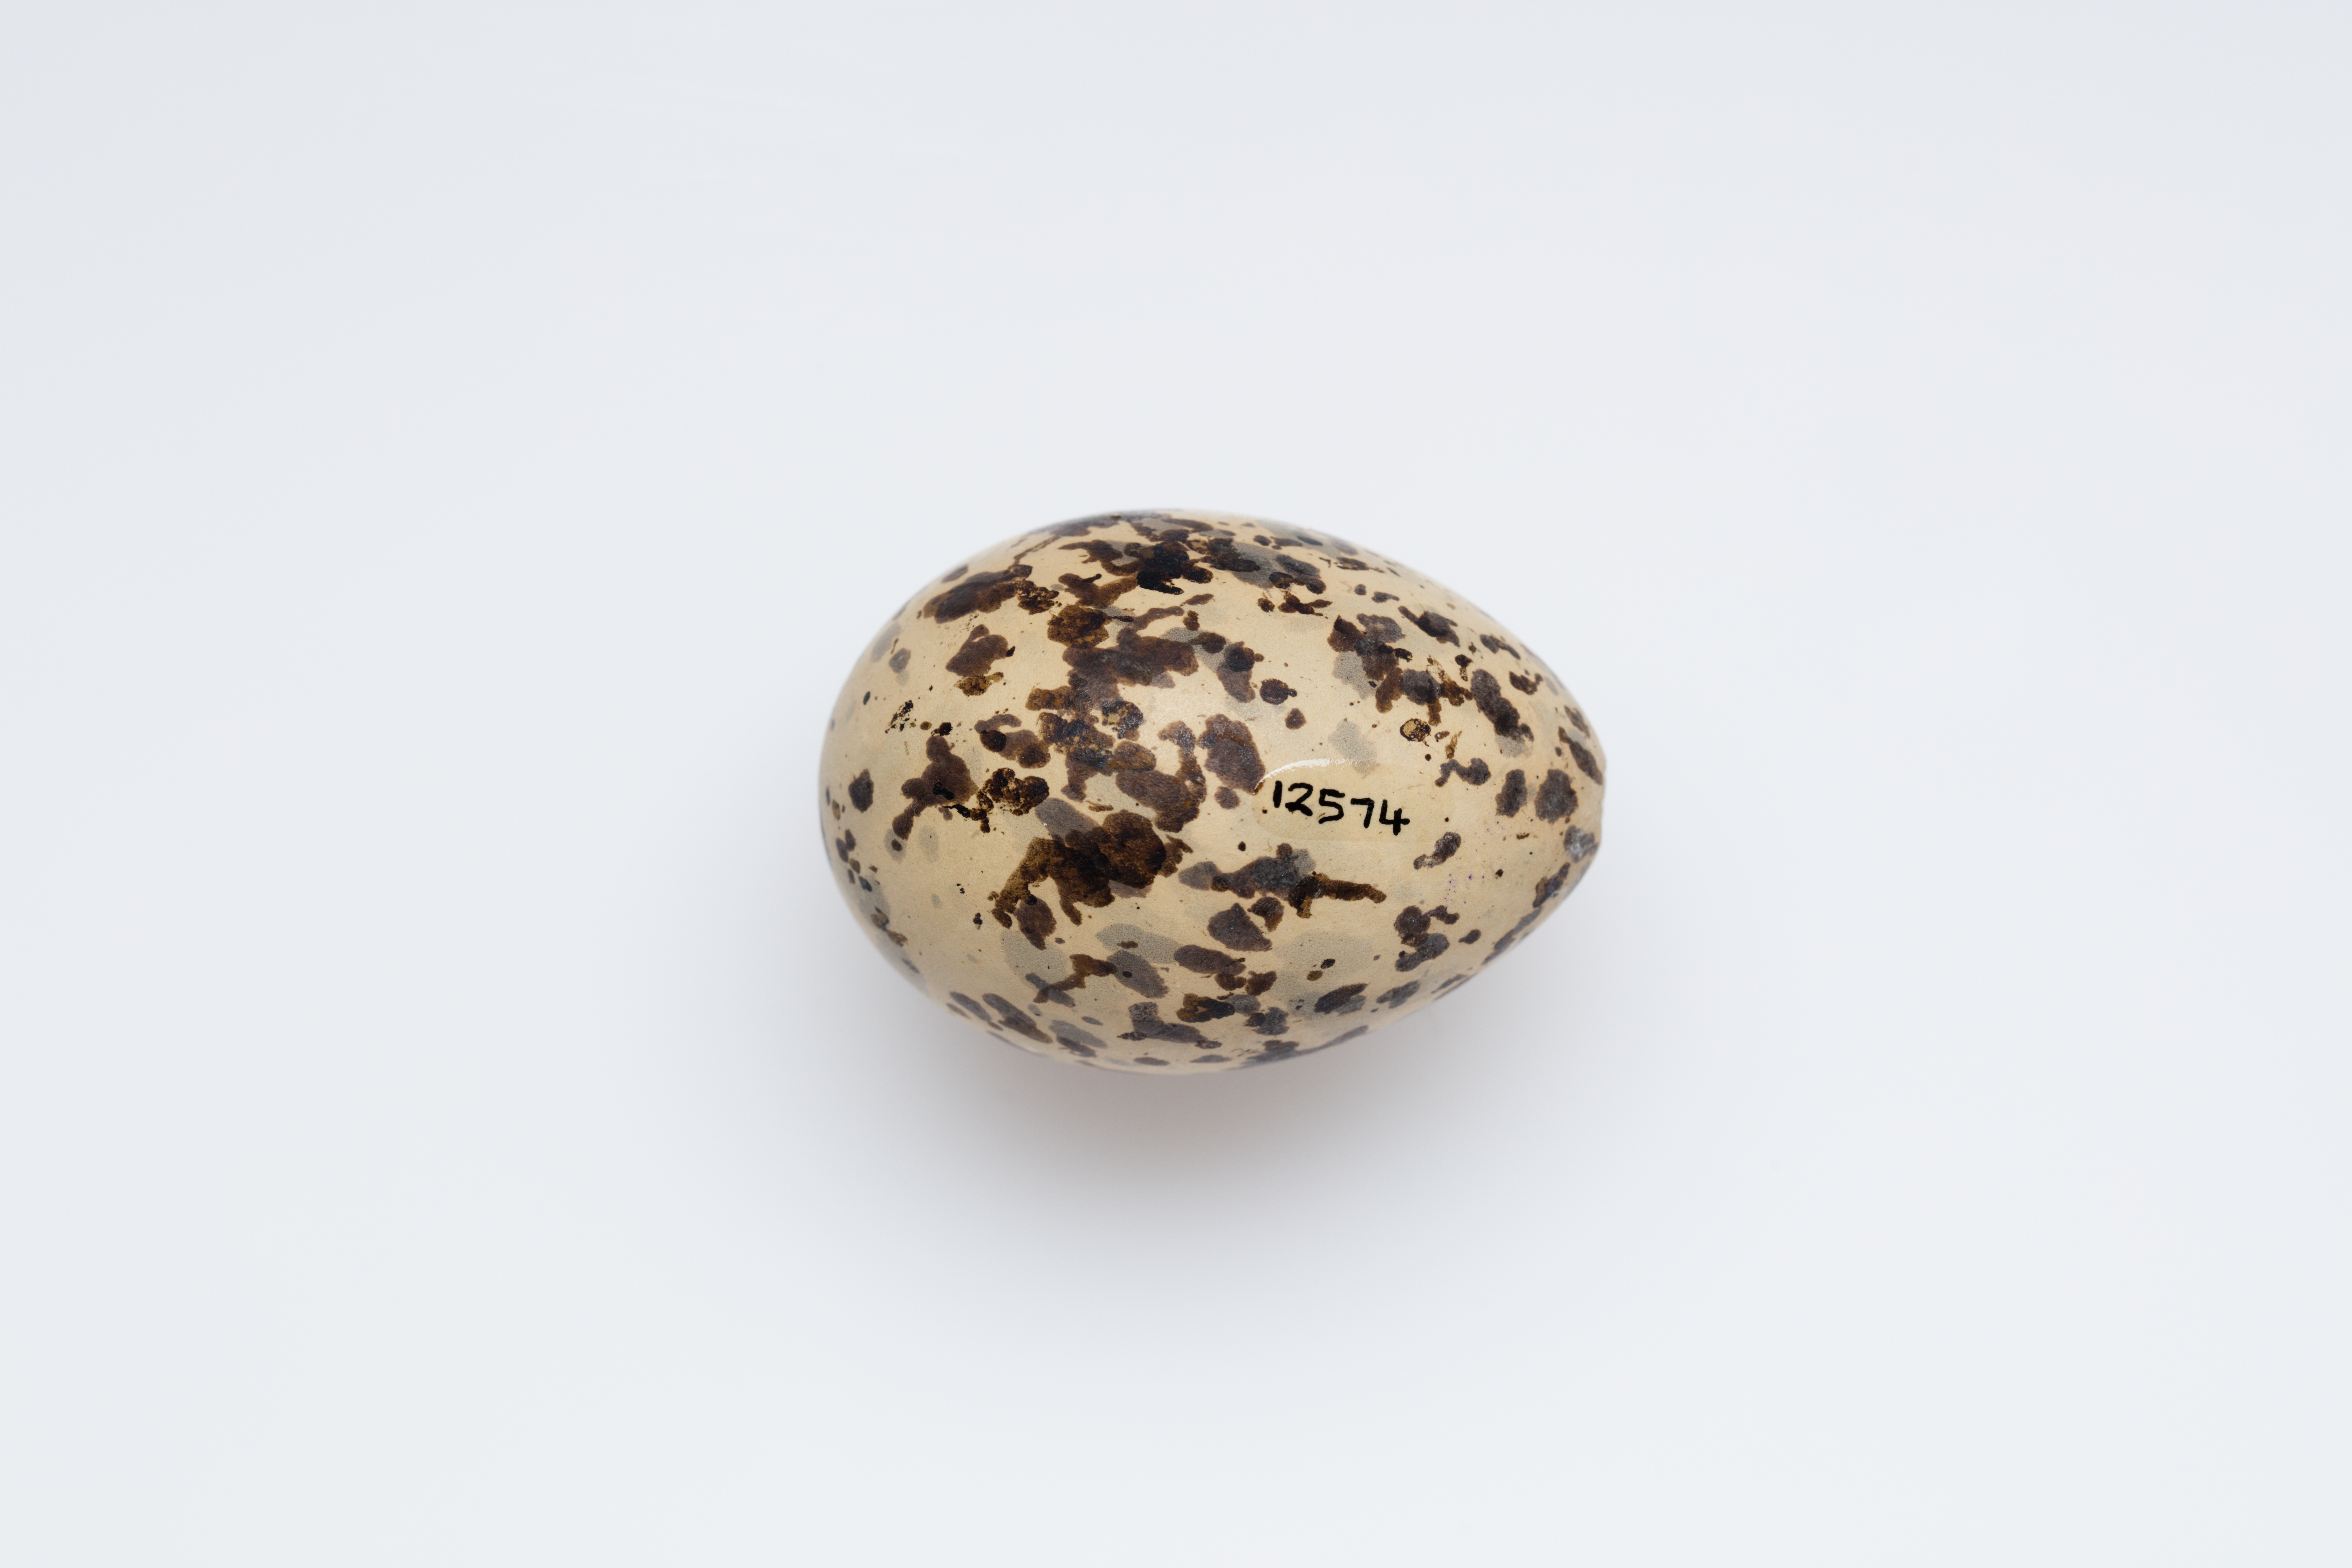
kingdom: Animalia
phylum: Chordata
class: Aves
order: Charadriiformes
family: Laridae
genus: Onychoprion
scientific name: Onychoprion anaethetus
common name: Bridled tern
